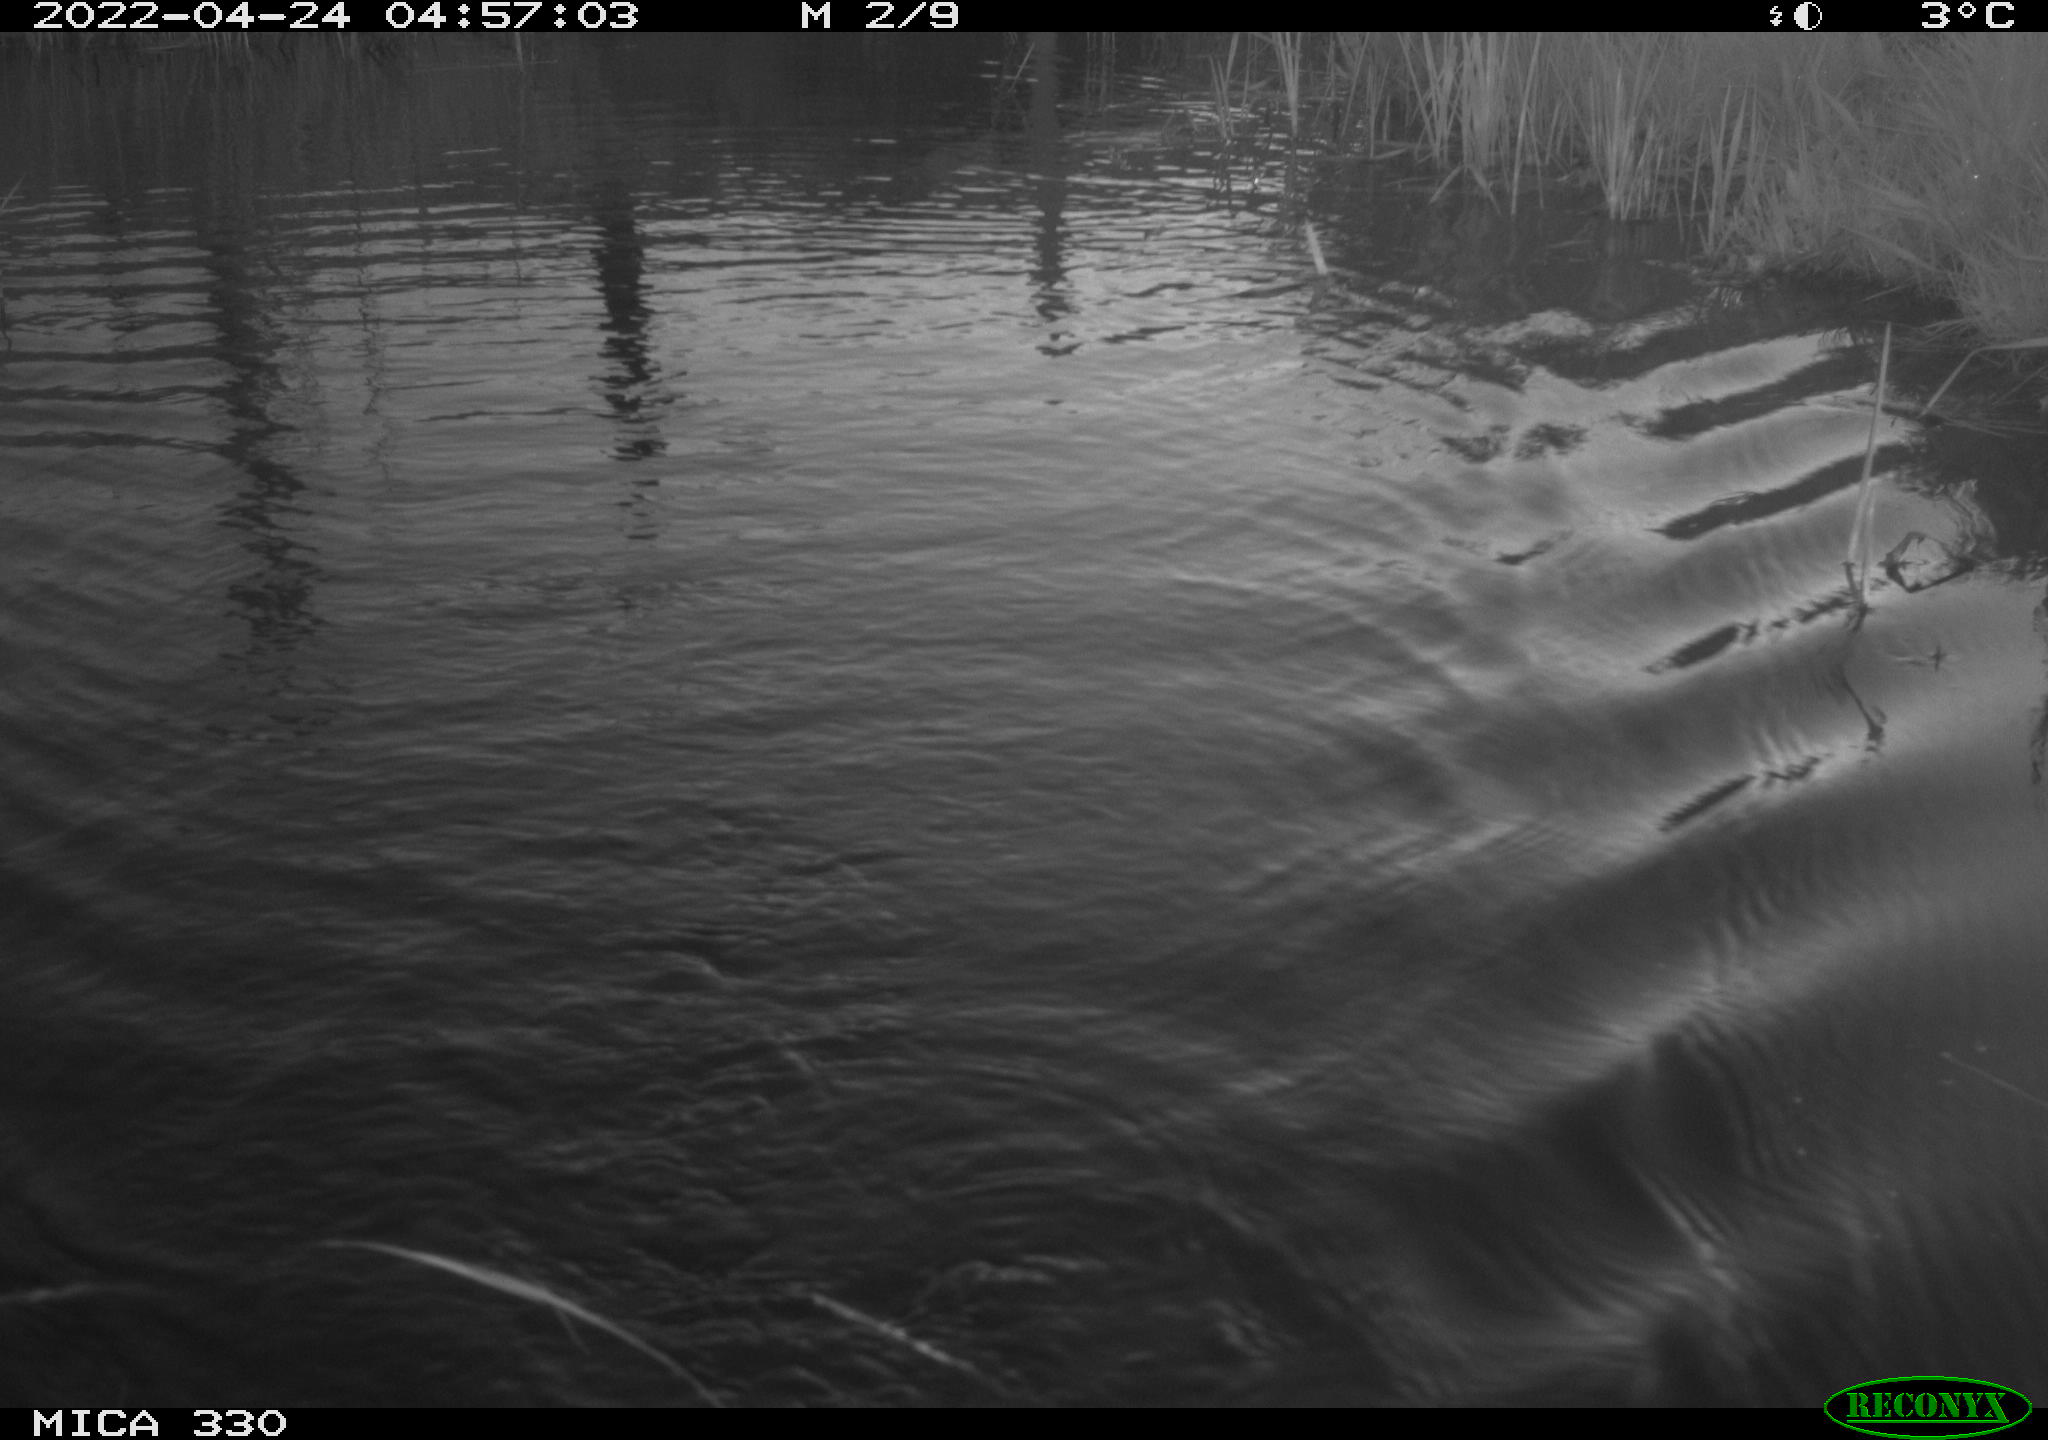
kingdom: Animalia
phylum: Chordata
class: Mammalia
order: Rodentia
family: Cricetidae
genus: Ondatra
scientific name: Ondatra zibethicus
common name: Muskrat
